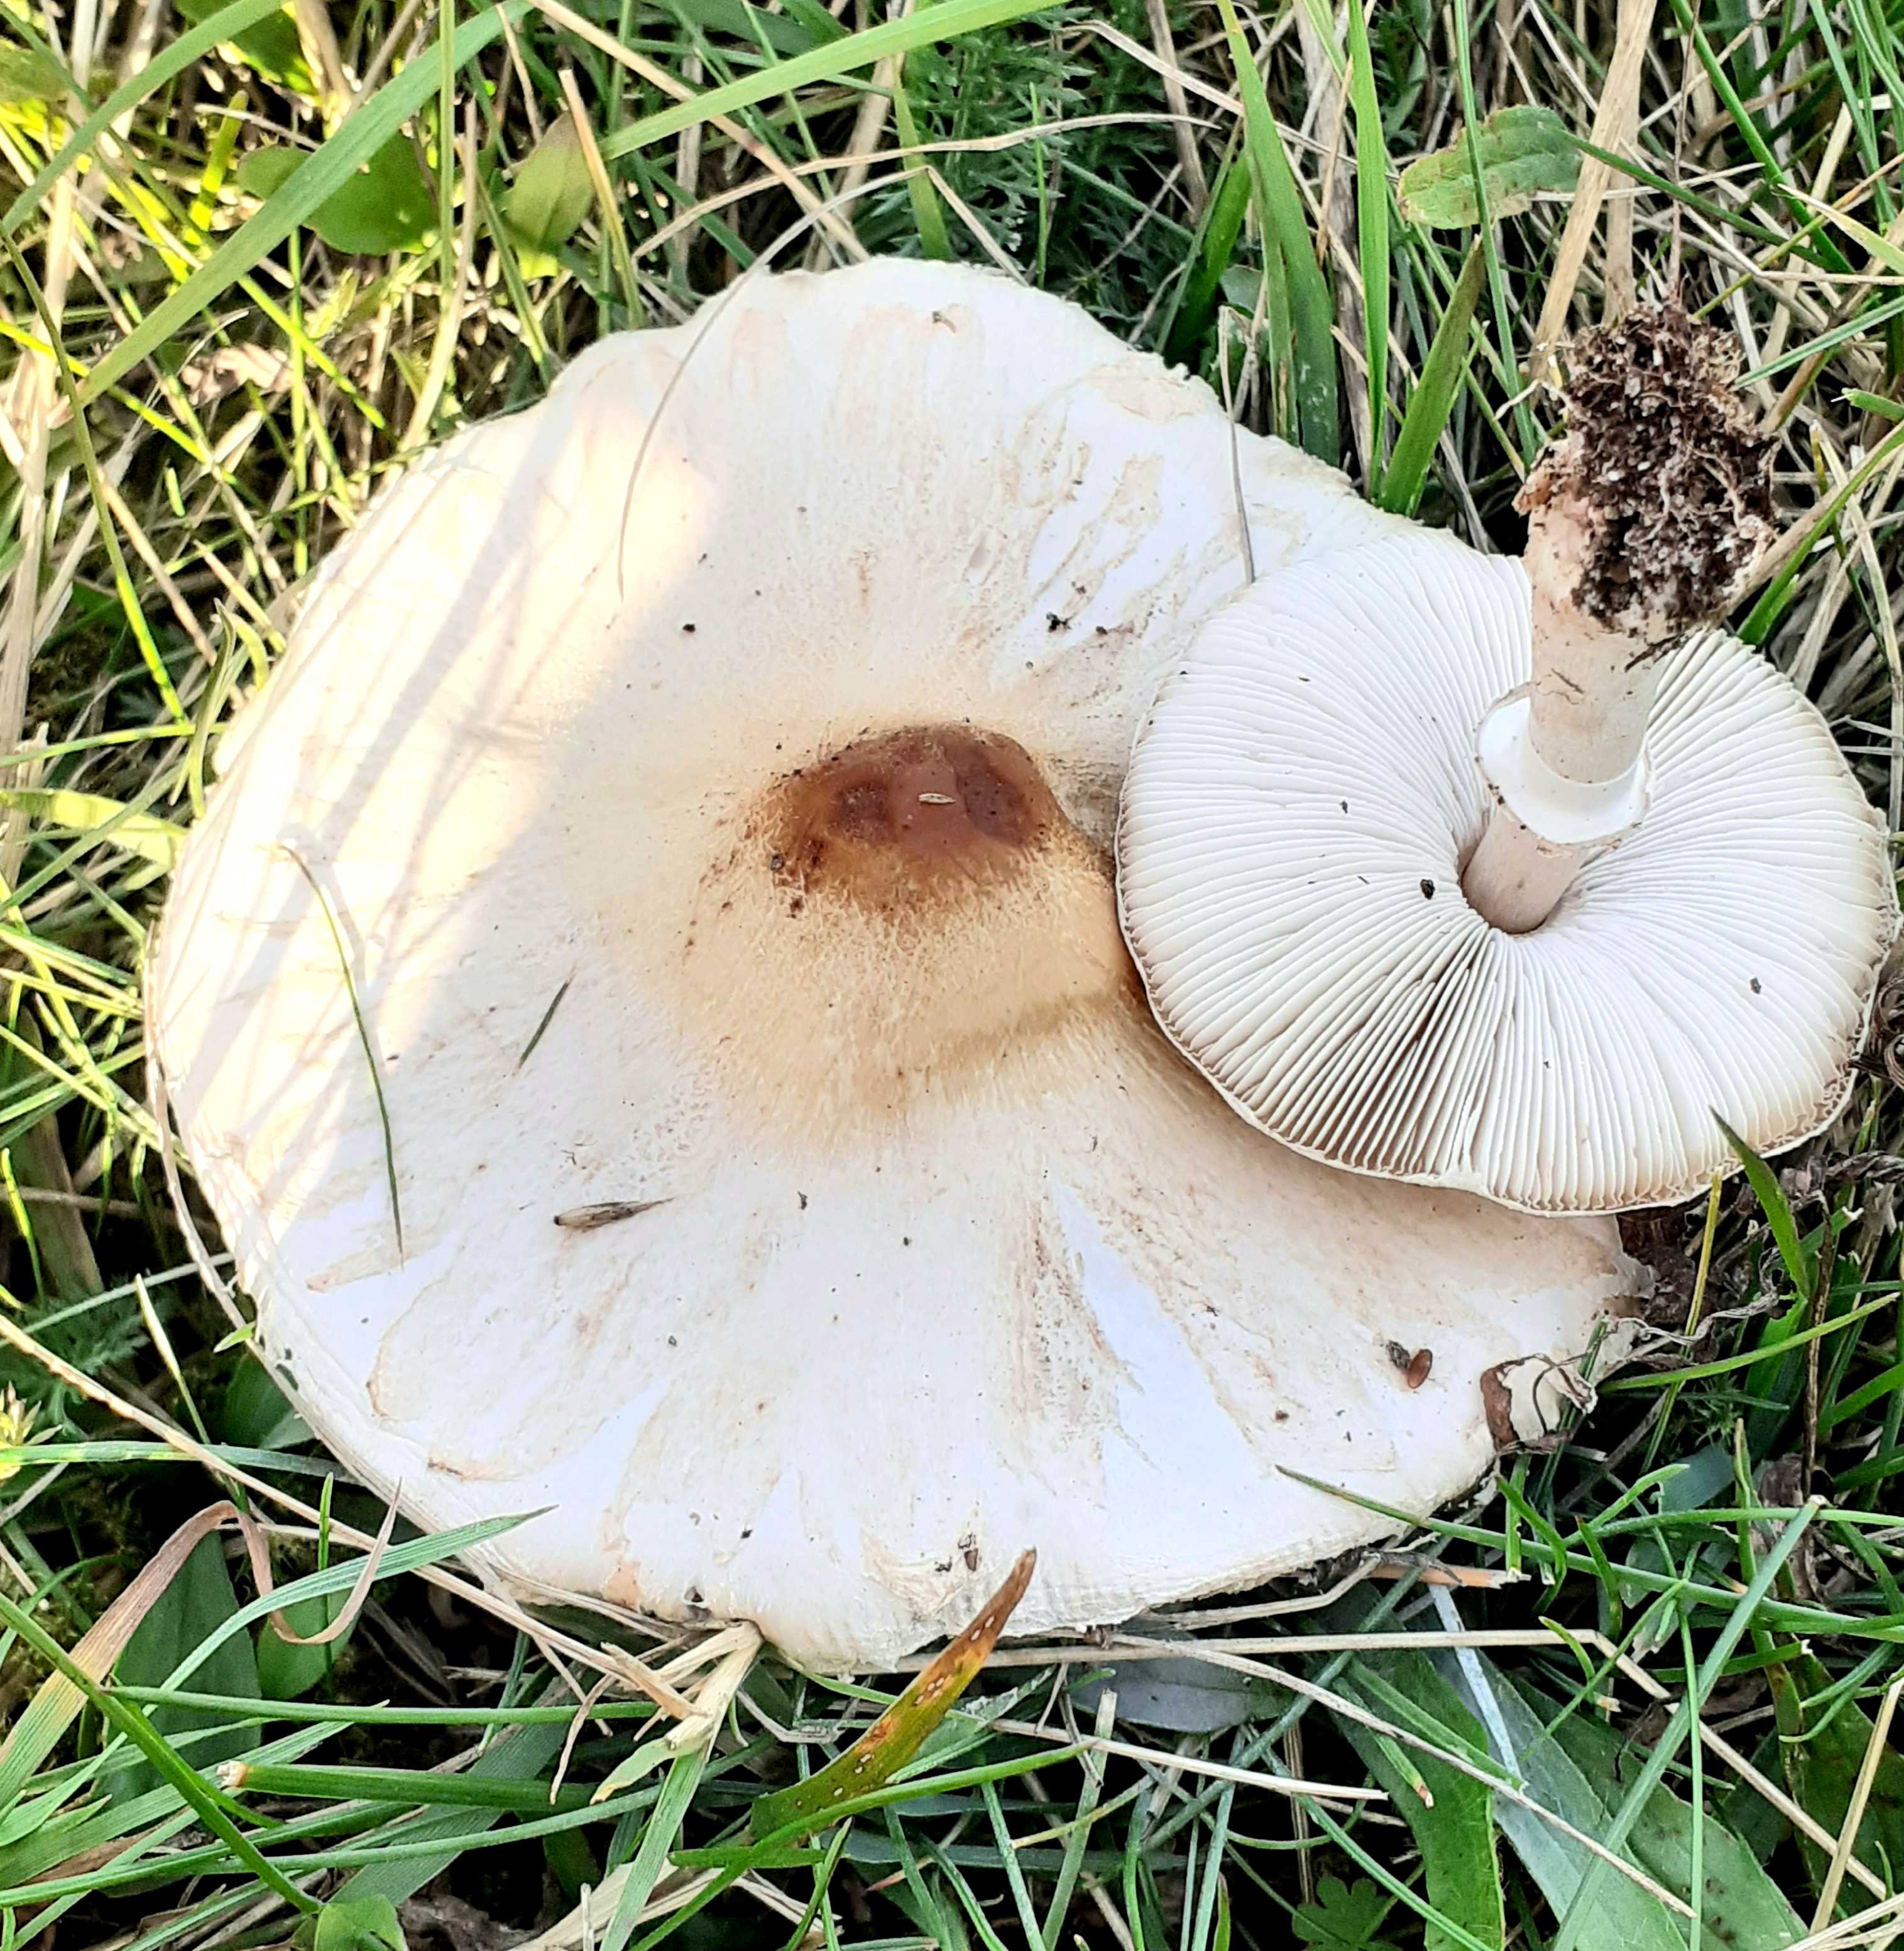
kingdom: Fungi
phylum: Basidiomycota
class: Agaricomycetes
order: Agaricales
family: Agaricaceae
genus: Macrolepiota
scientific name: Macrolepiota excoriata
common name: mark-kæmpeparasolhat
